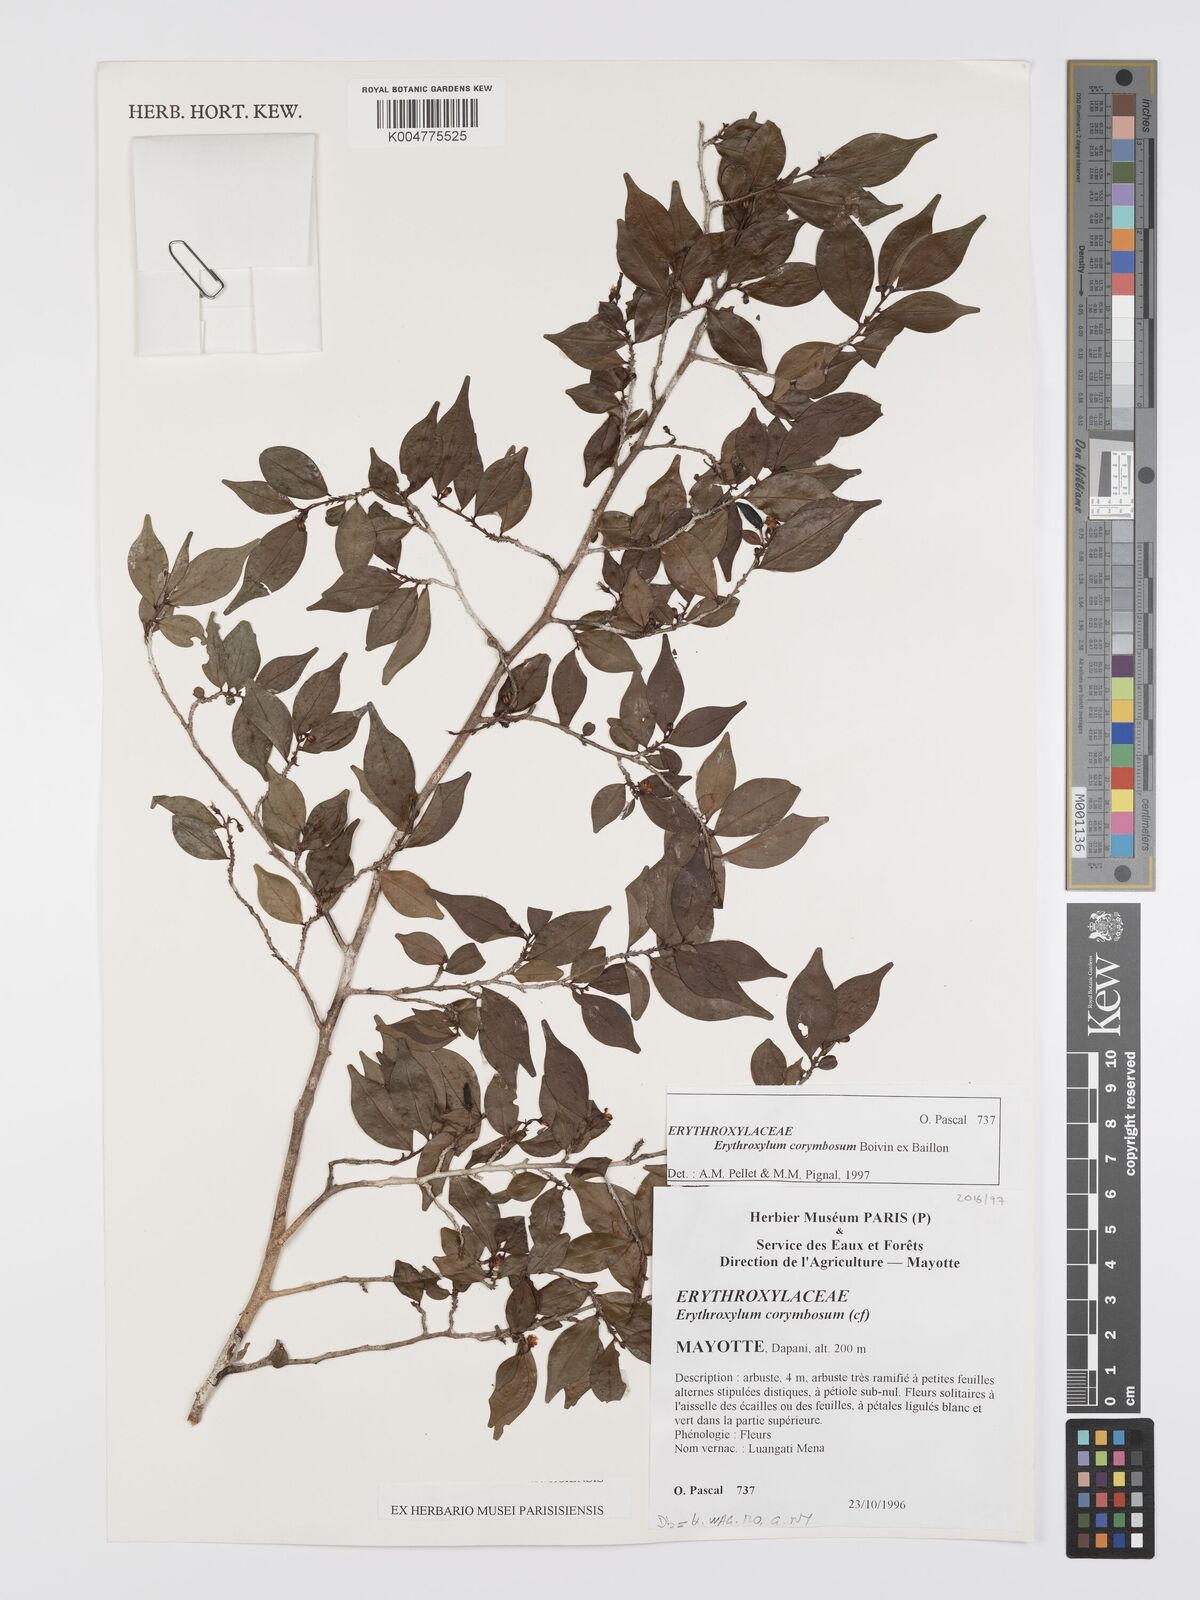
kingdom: Plantae
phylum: Tracheophyta
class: Magnoliopsida
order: Malpighiales
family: Erythroxylaceae
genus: Erythroxylum
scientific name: Erythroxylum corymbosum
